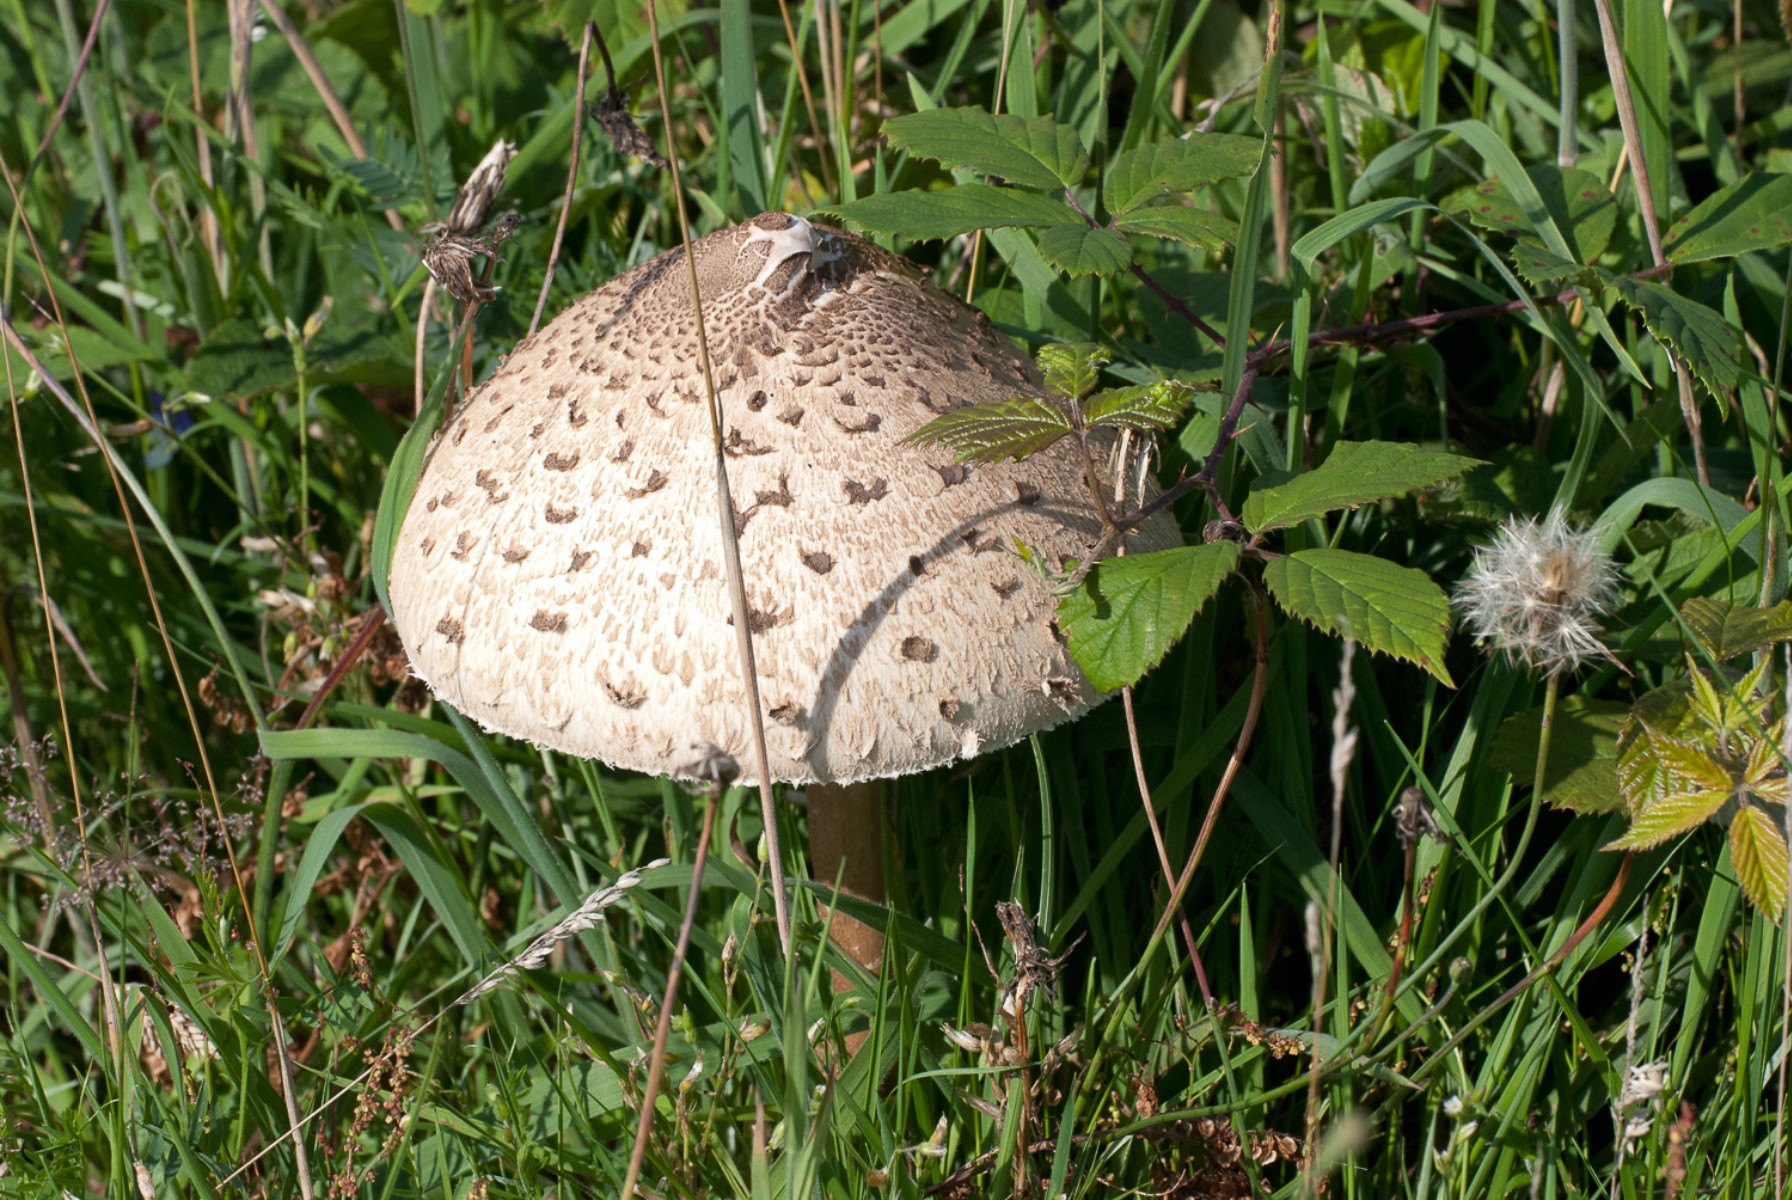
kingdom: Fungi
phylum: Basidiomycota
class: Agaricomycetes
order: Agaricales
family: Agaricaceae
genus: Macrolepiota
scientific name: Macrolepiota procera
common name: stor kæmpeparasolhat
